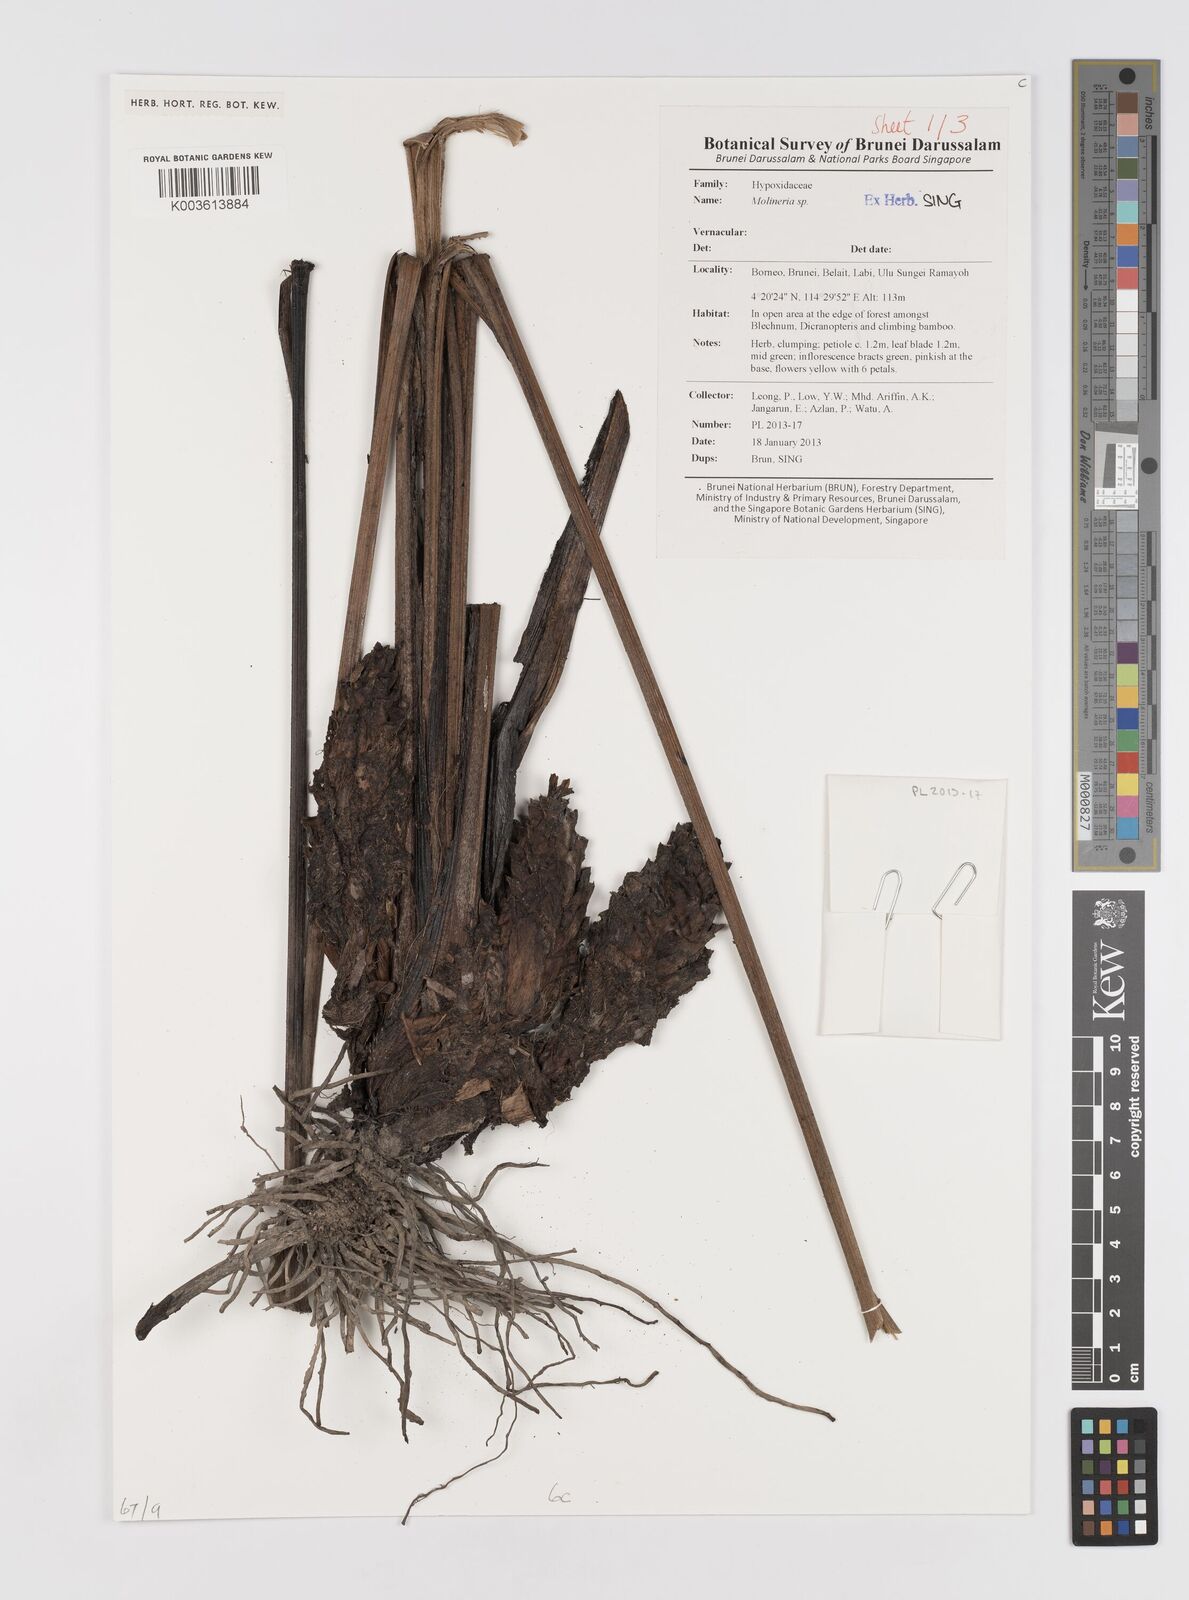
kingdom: Plantae
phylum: Tracheophyta
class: Liliopsida
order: Asparagales
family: Hypoxidaceae
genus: Curculigo
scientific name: Curculigo
